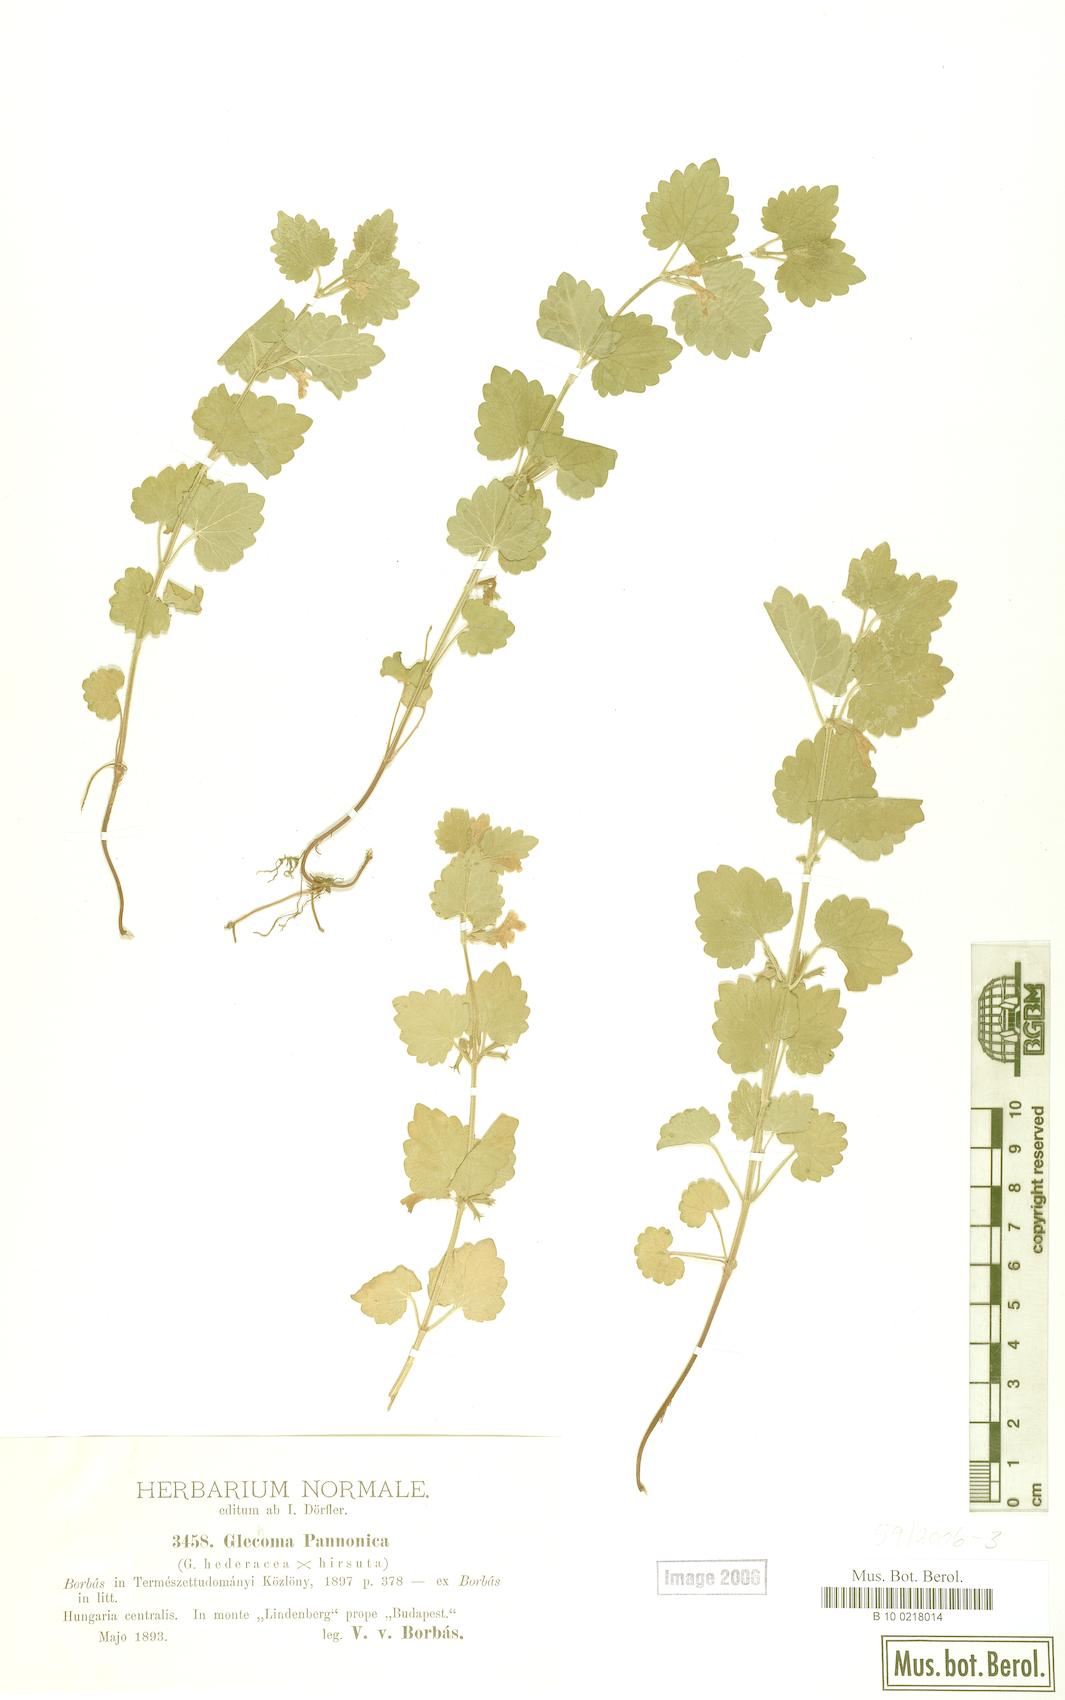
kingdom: Plantae
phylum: Tracheophyta
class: Magnoliopsida
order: Lamiales
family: Lamiaceae
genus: Glechoma
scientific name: Glechoma pannonica
